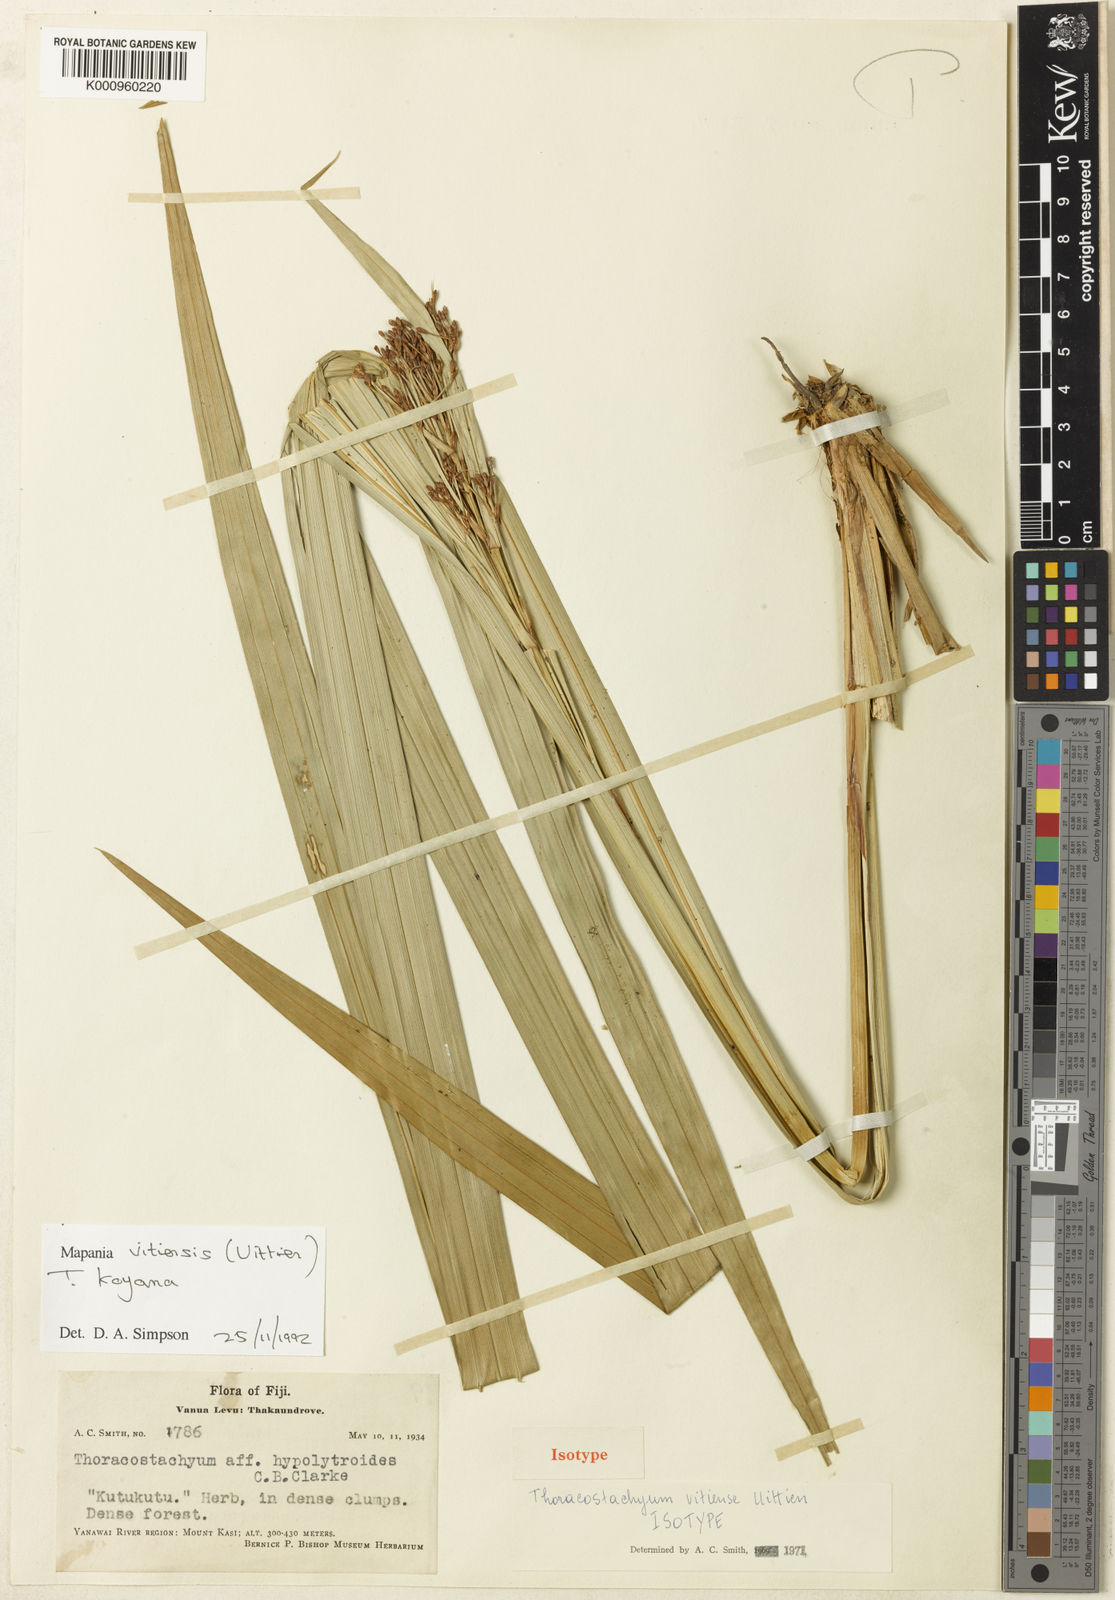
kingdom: Plantae
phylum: Tracheophyta
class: Liliopsida
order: Poales
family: Cyperaceae
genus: Mapania
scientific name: Mapania vitiensis
